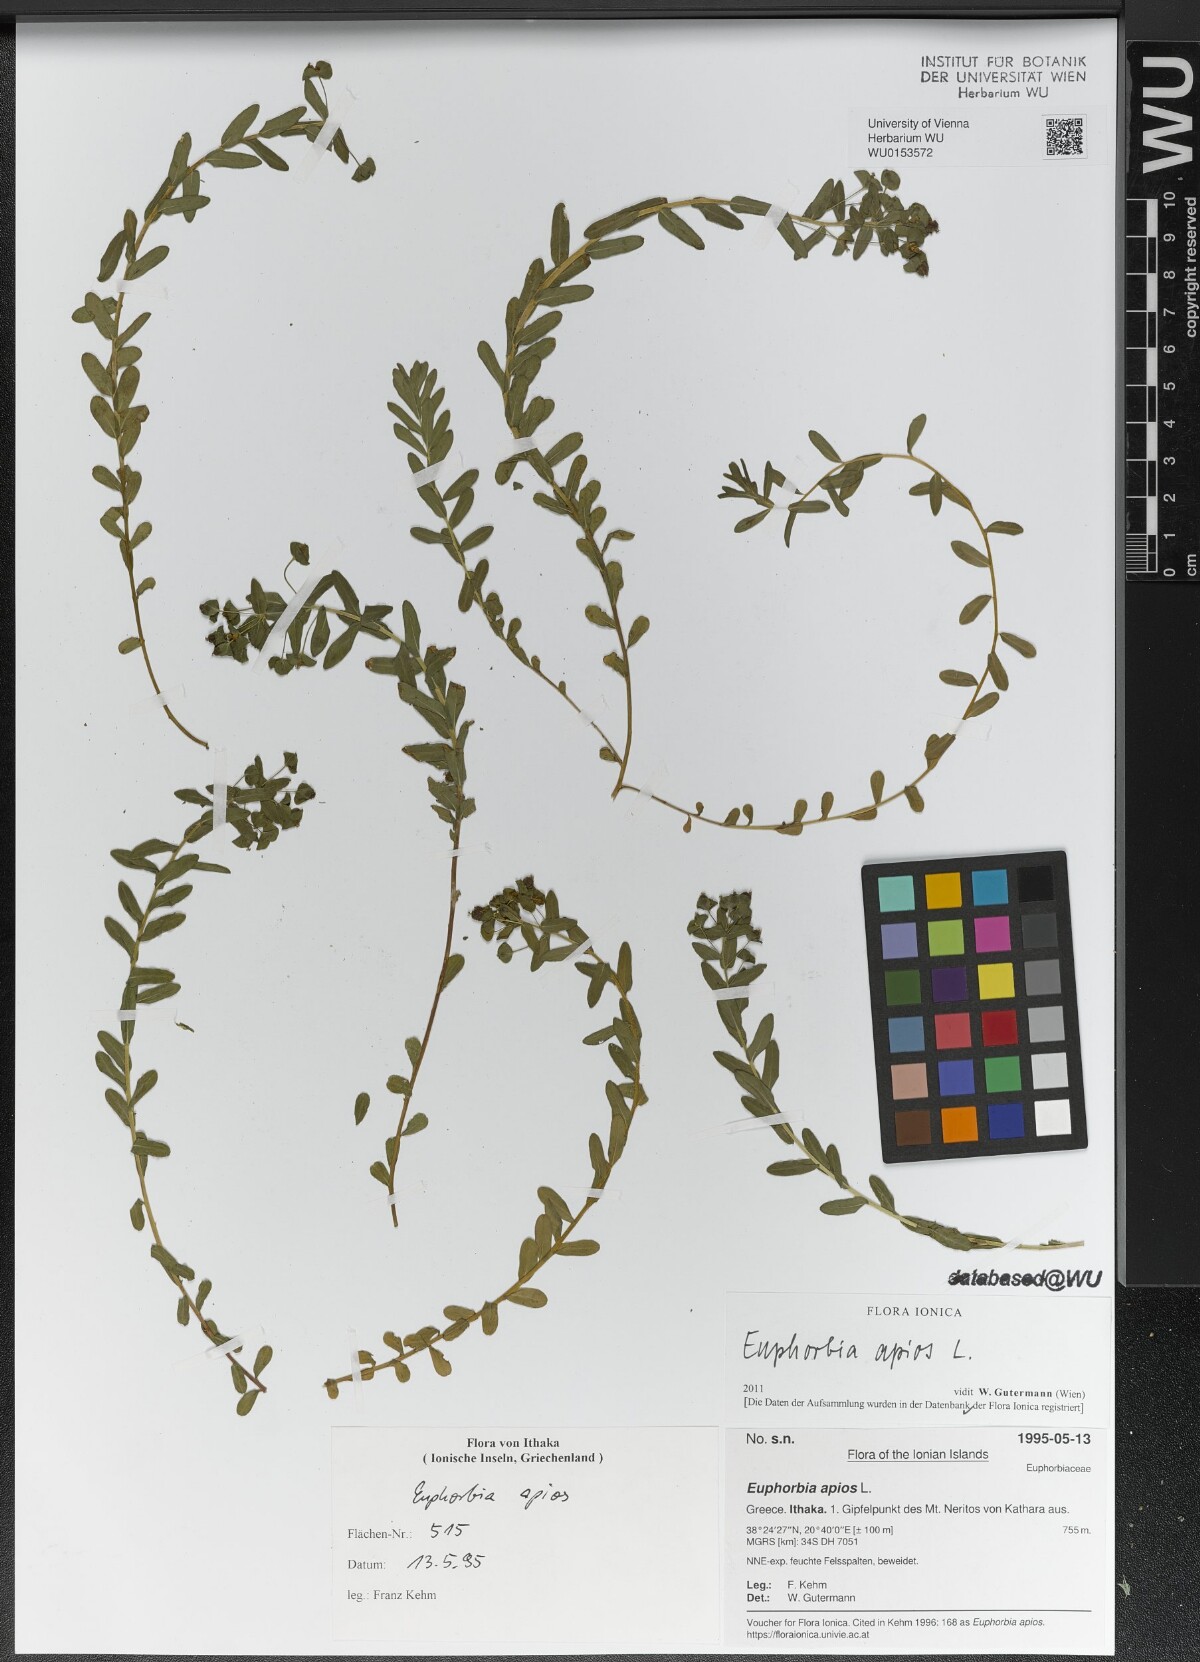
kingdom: Plantae
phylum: Tracheophyta
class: Magnoliopsida
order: Malpighiales
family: Euphorbiaceae
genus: Euphorbia
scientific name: Euphorbia apios
